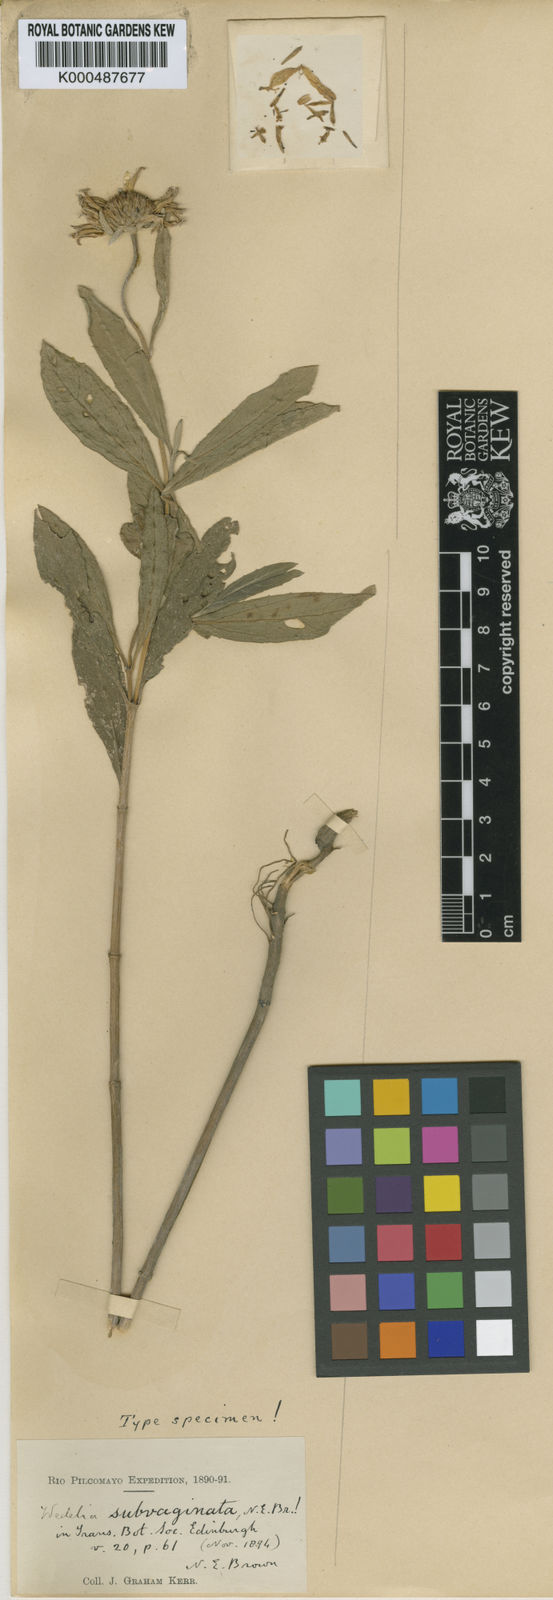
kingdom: Plantae
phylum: Tracheophyta
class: Magnoliopsida
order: Asterales
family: Asteraceae
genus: Pascalia
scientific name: Pascalia subvaginata
